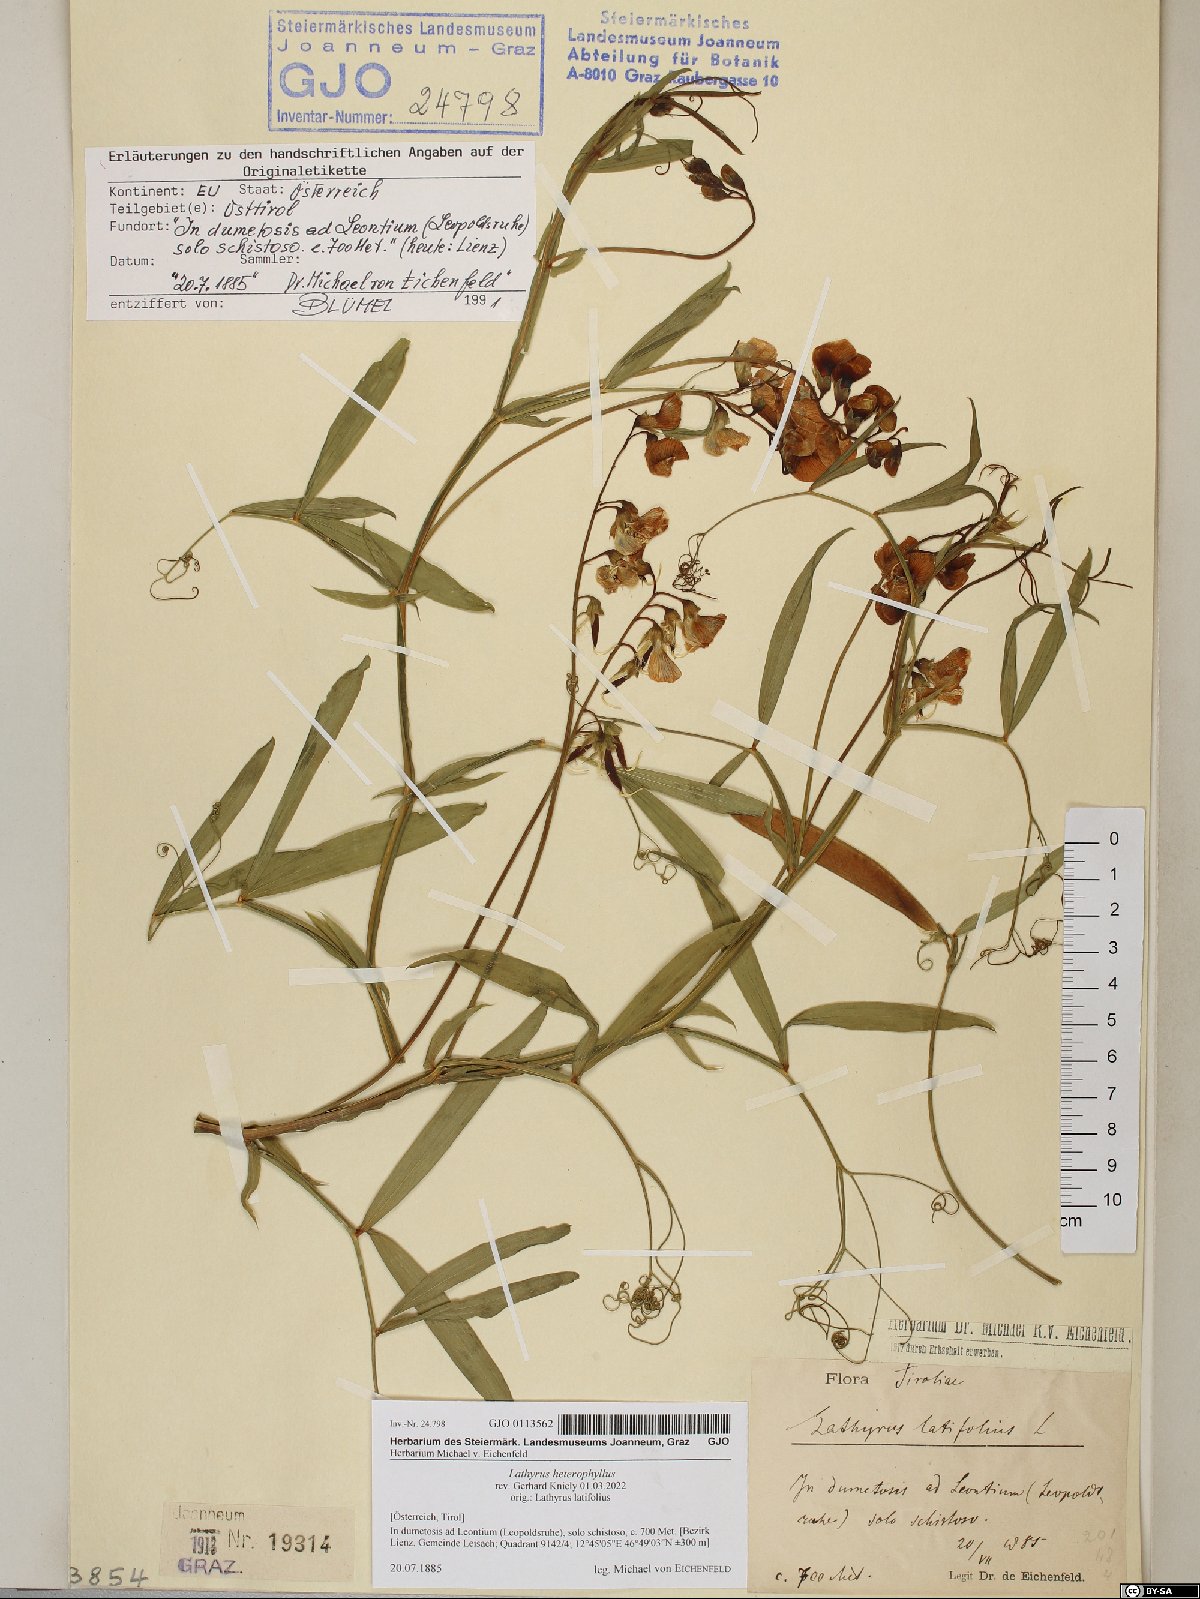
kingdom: Plantae
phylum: Tracheophyta
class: Magnoliopsida
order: Fabales
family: Fabaceae
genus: Lathyrus
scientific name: Lathyrus heterophyllus
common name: Norfolk everlasting-pea
